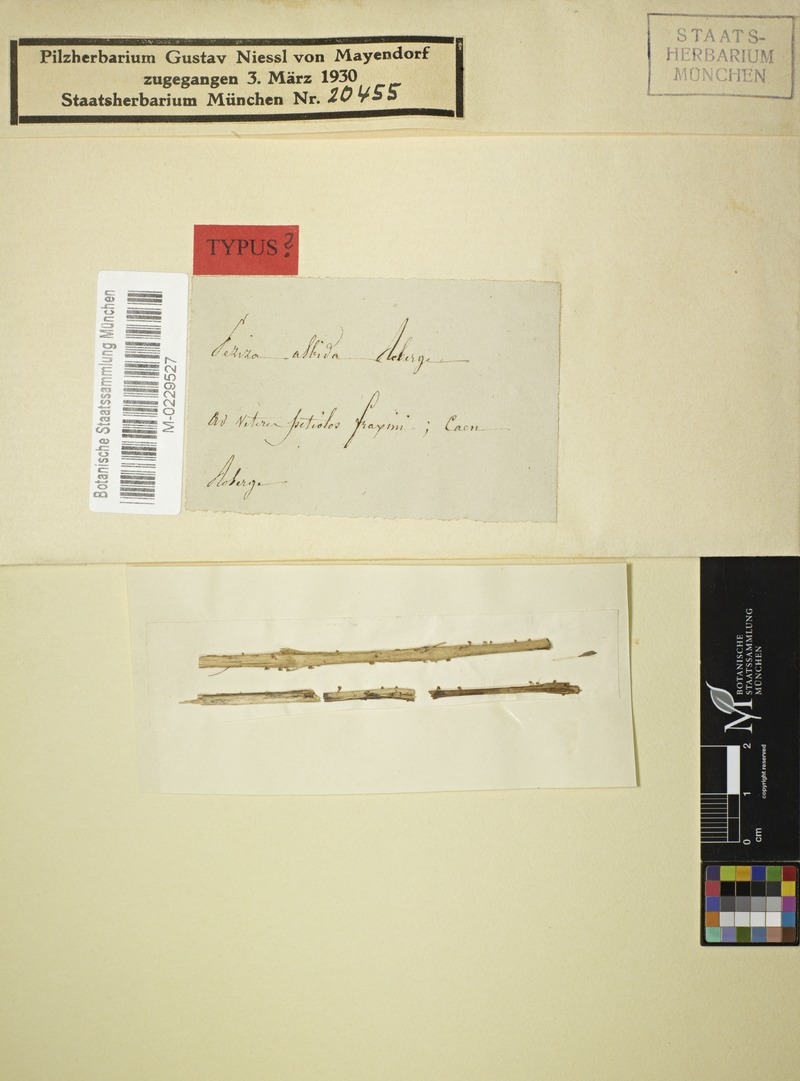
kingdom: Fungi
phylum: Ascomycota
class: Leotiomycetes
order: Helotiales
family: Helotiaceae
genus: Hymenoscyphus
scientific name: Hymenoscyphus albidus
